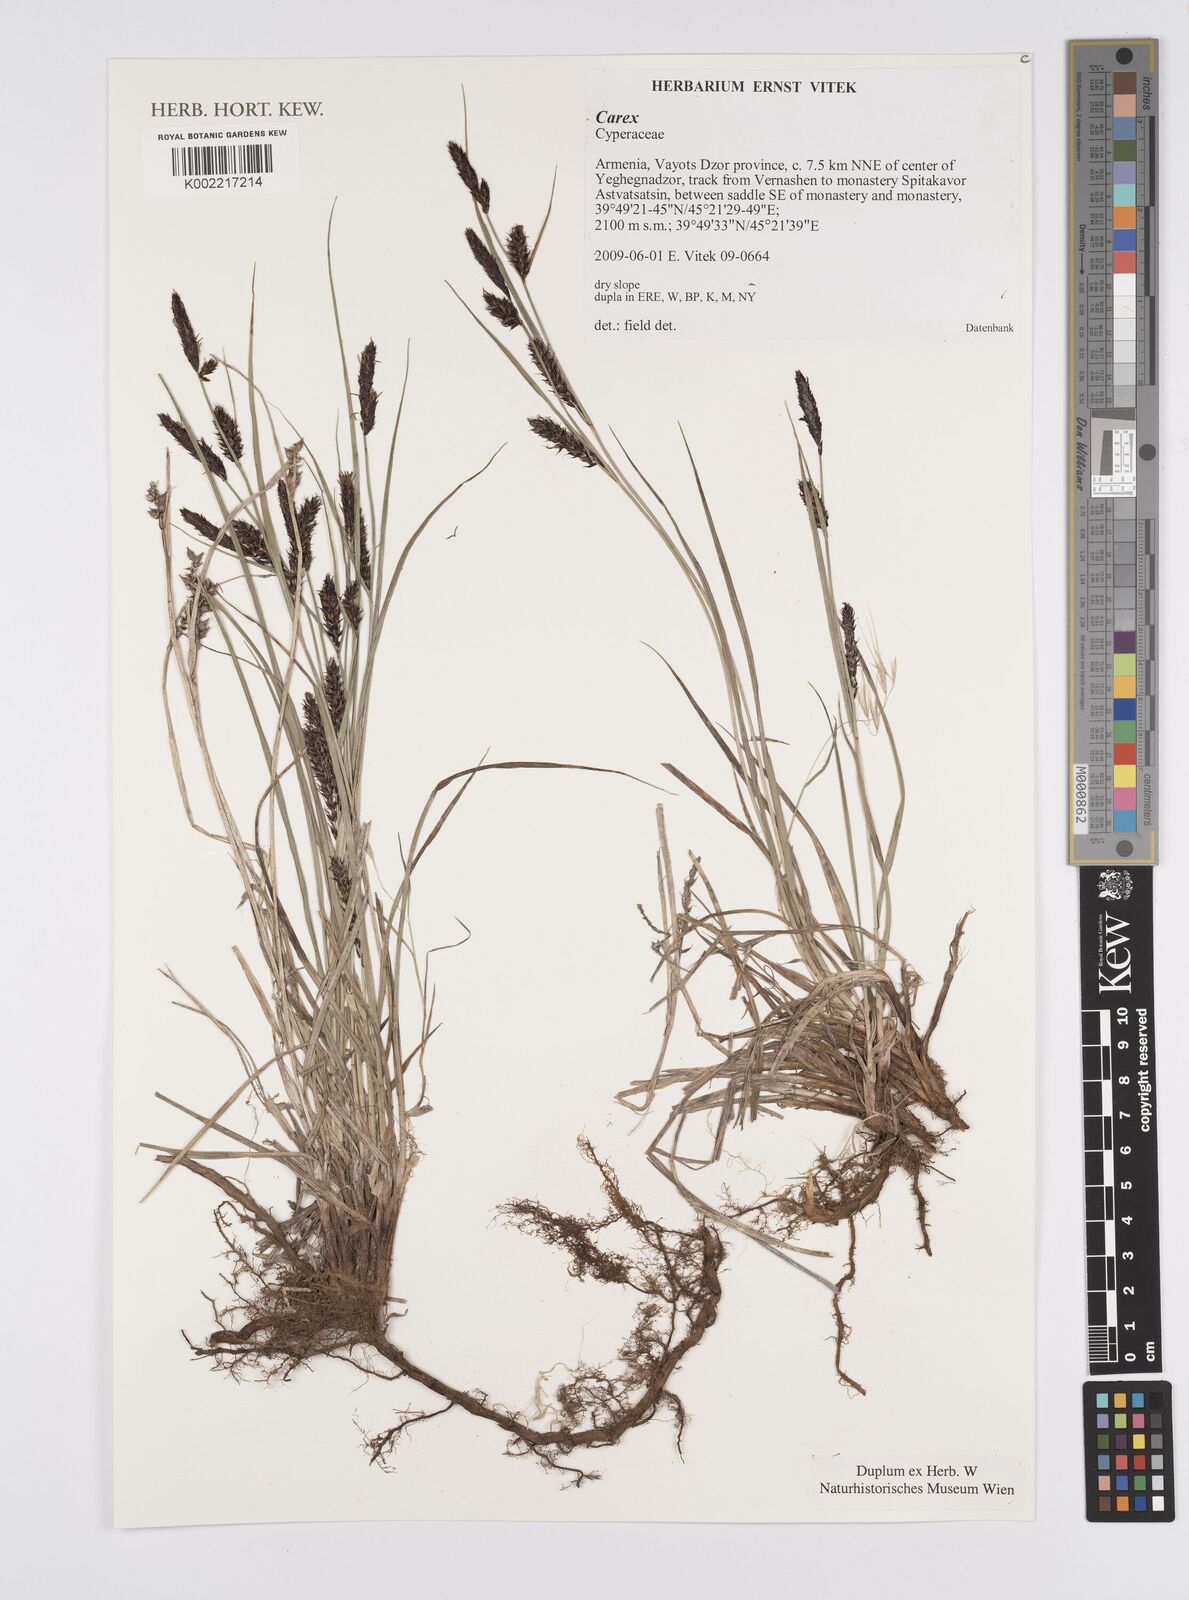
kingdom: Plantae
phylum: Tracheophyta
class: Liliopsida
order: Poales
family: Cyperaceae
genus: Carex
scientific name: Carex
